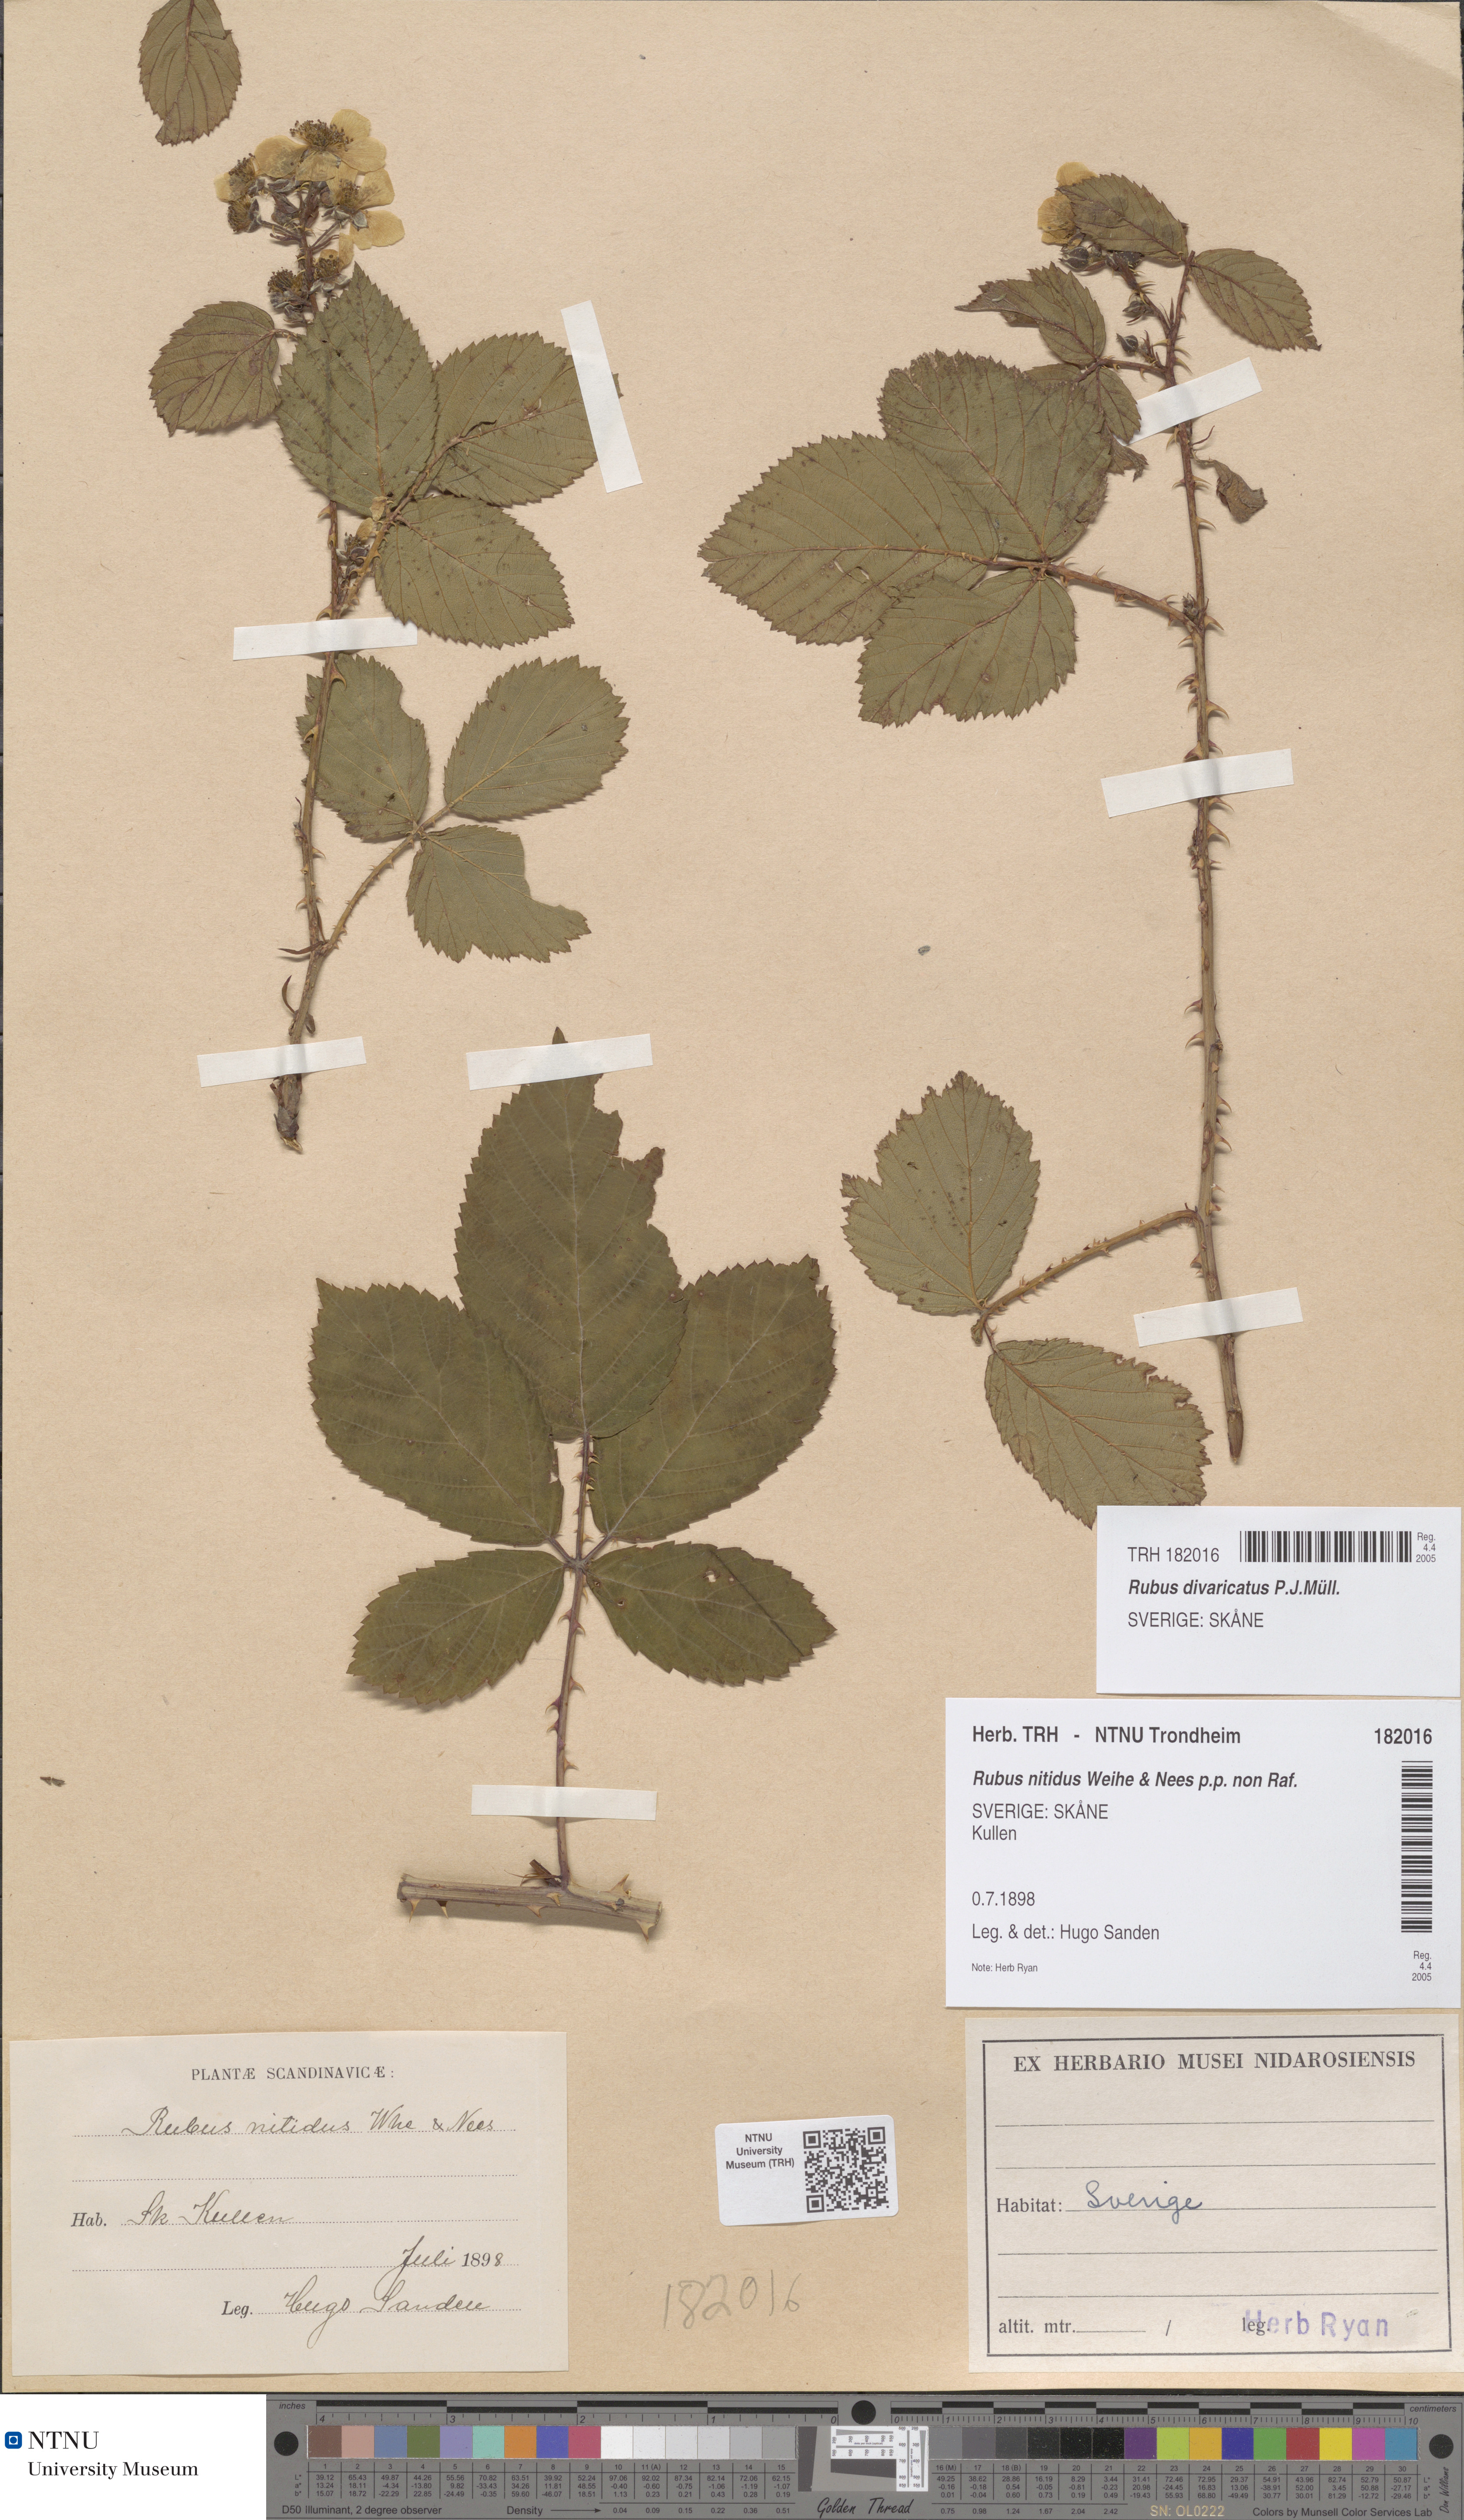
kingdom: Plantae
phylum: Tracheophyta
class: Magnoliopsida
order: Rosales
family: Rosaceae
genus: Rubus
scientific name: Rubus divaricatus
